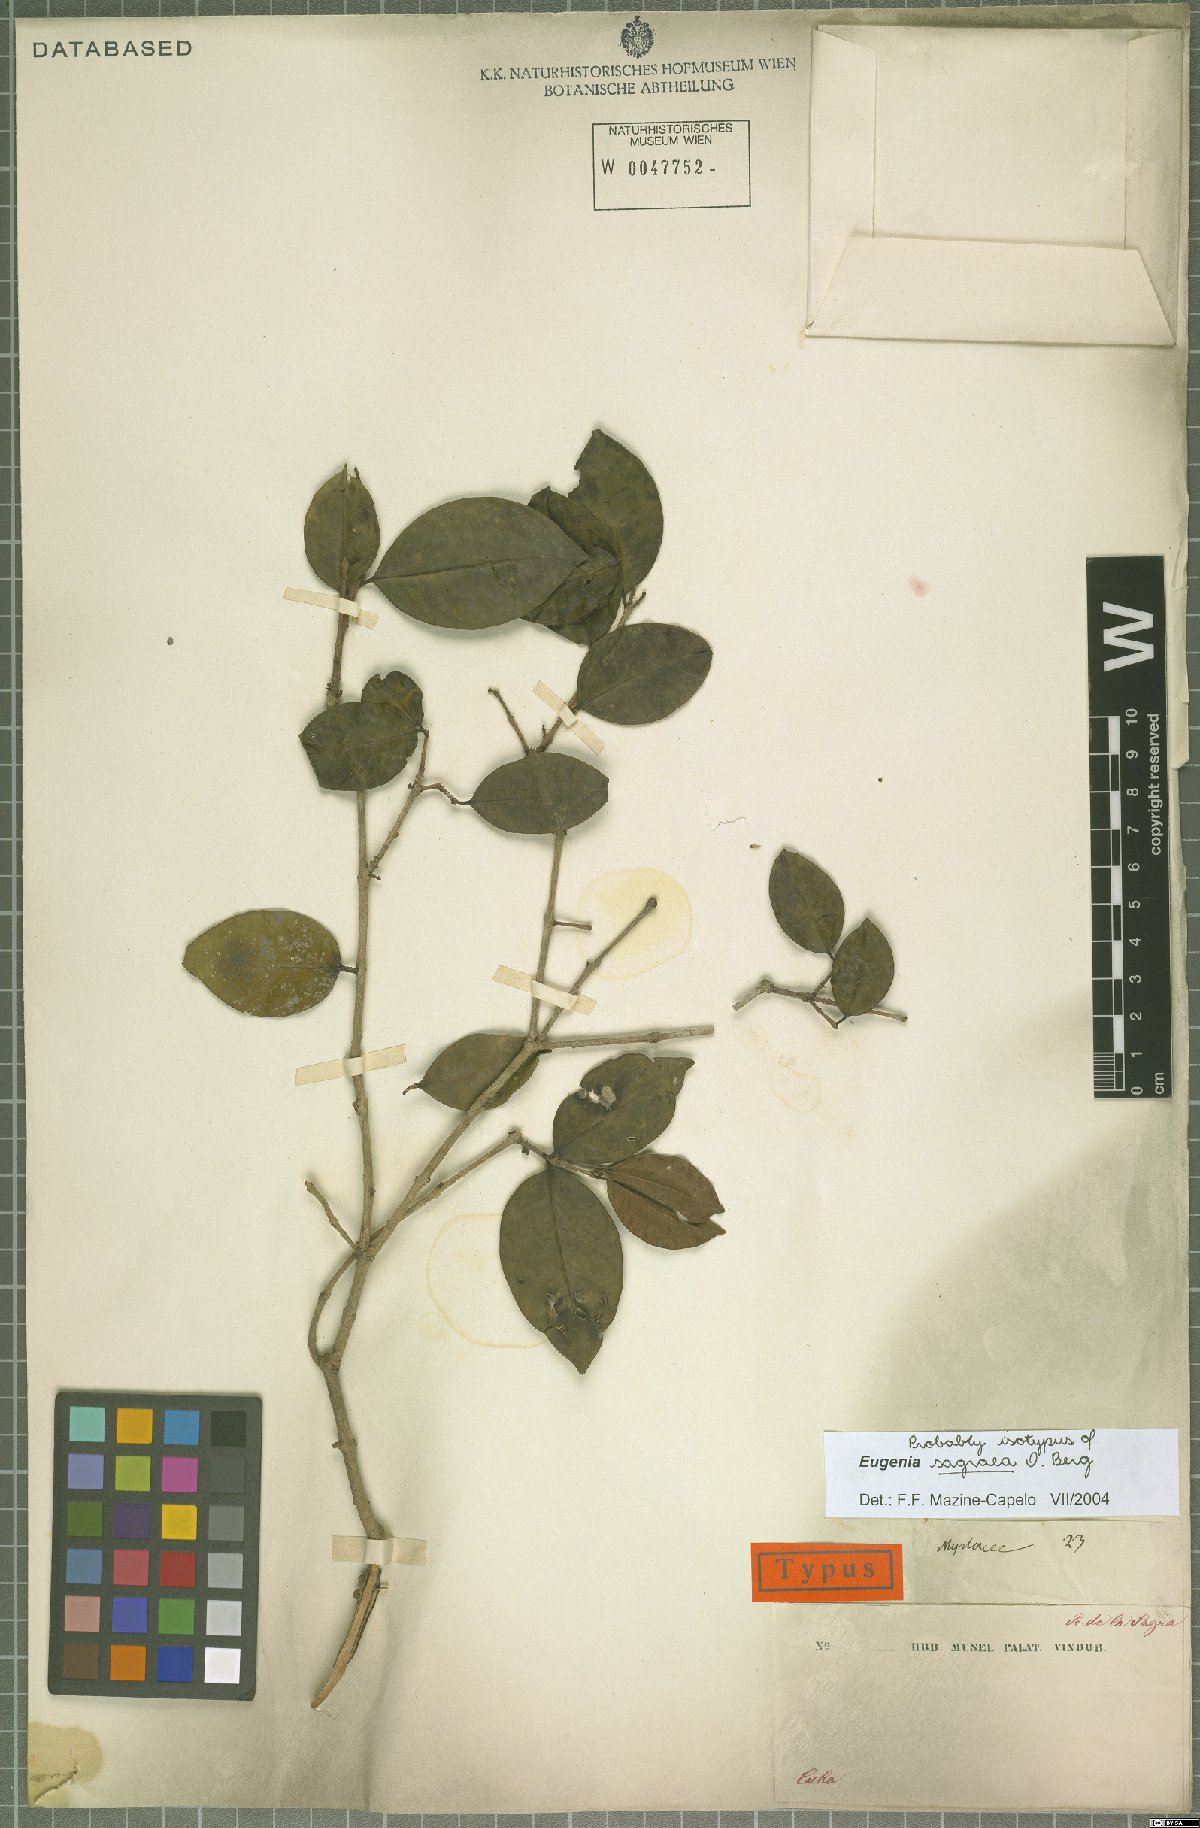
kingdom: Plantae
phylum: Tracheophyta
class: Magnoliopsida
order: Myrtales
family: Myrtaceae
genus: Eugenia
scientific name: Eugenia sagraea
